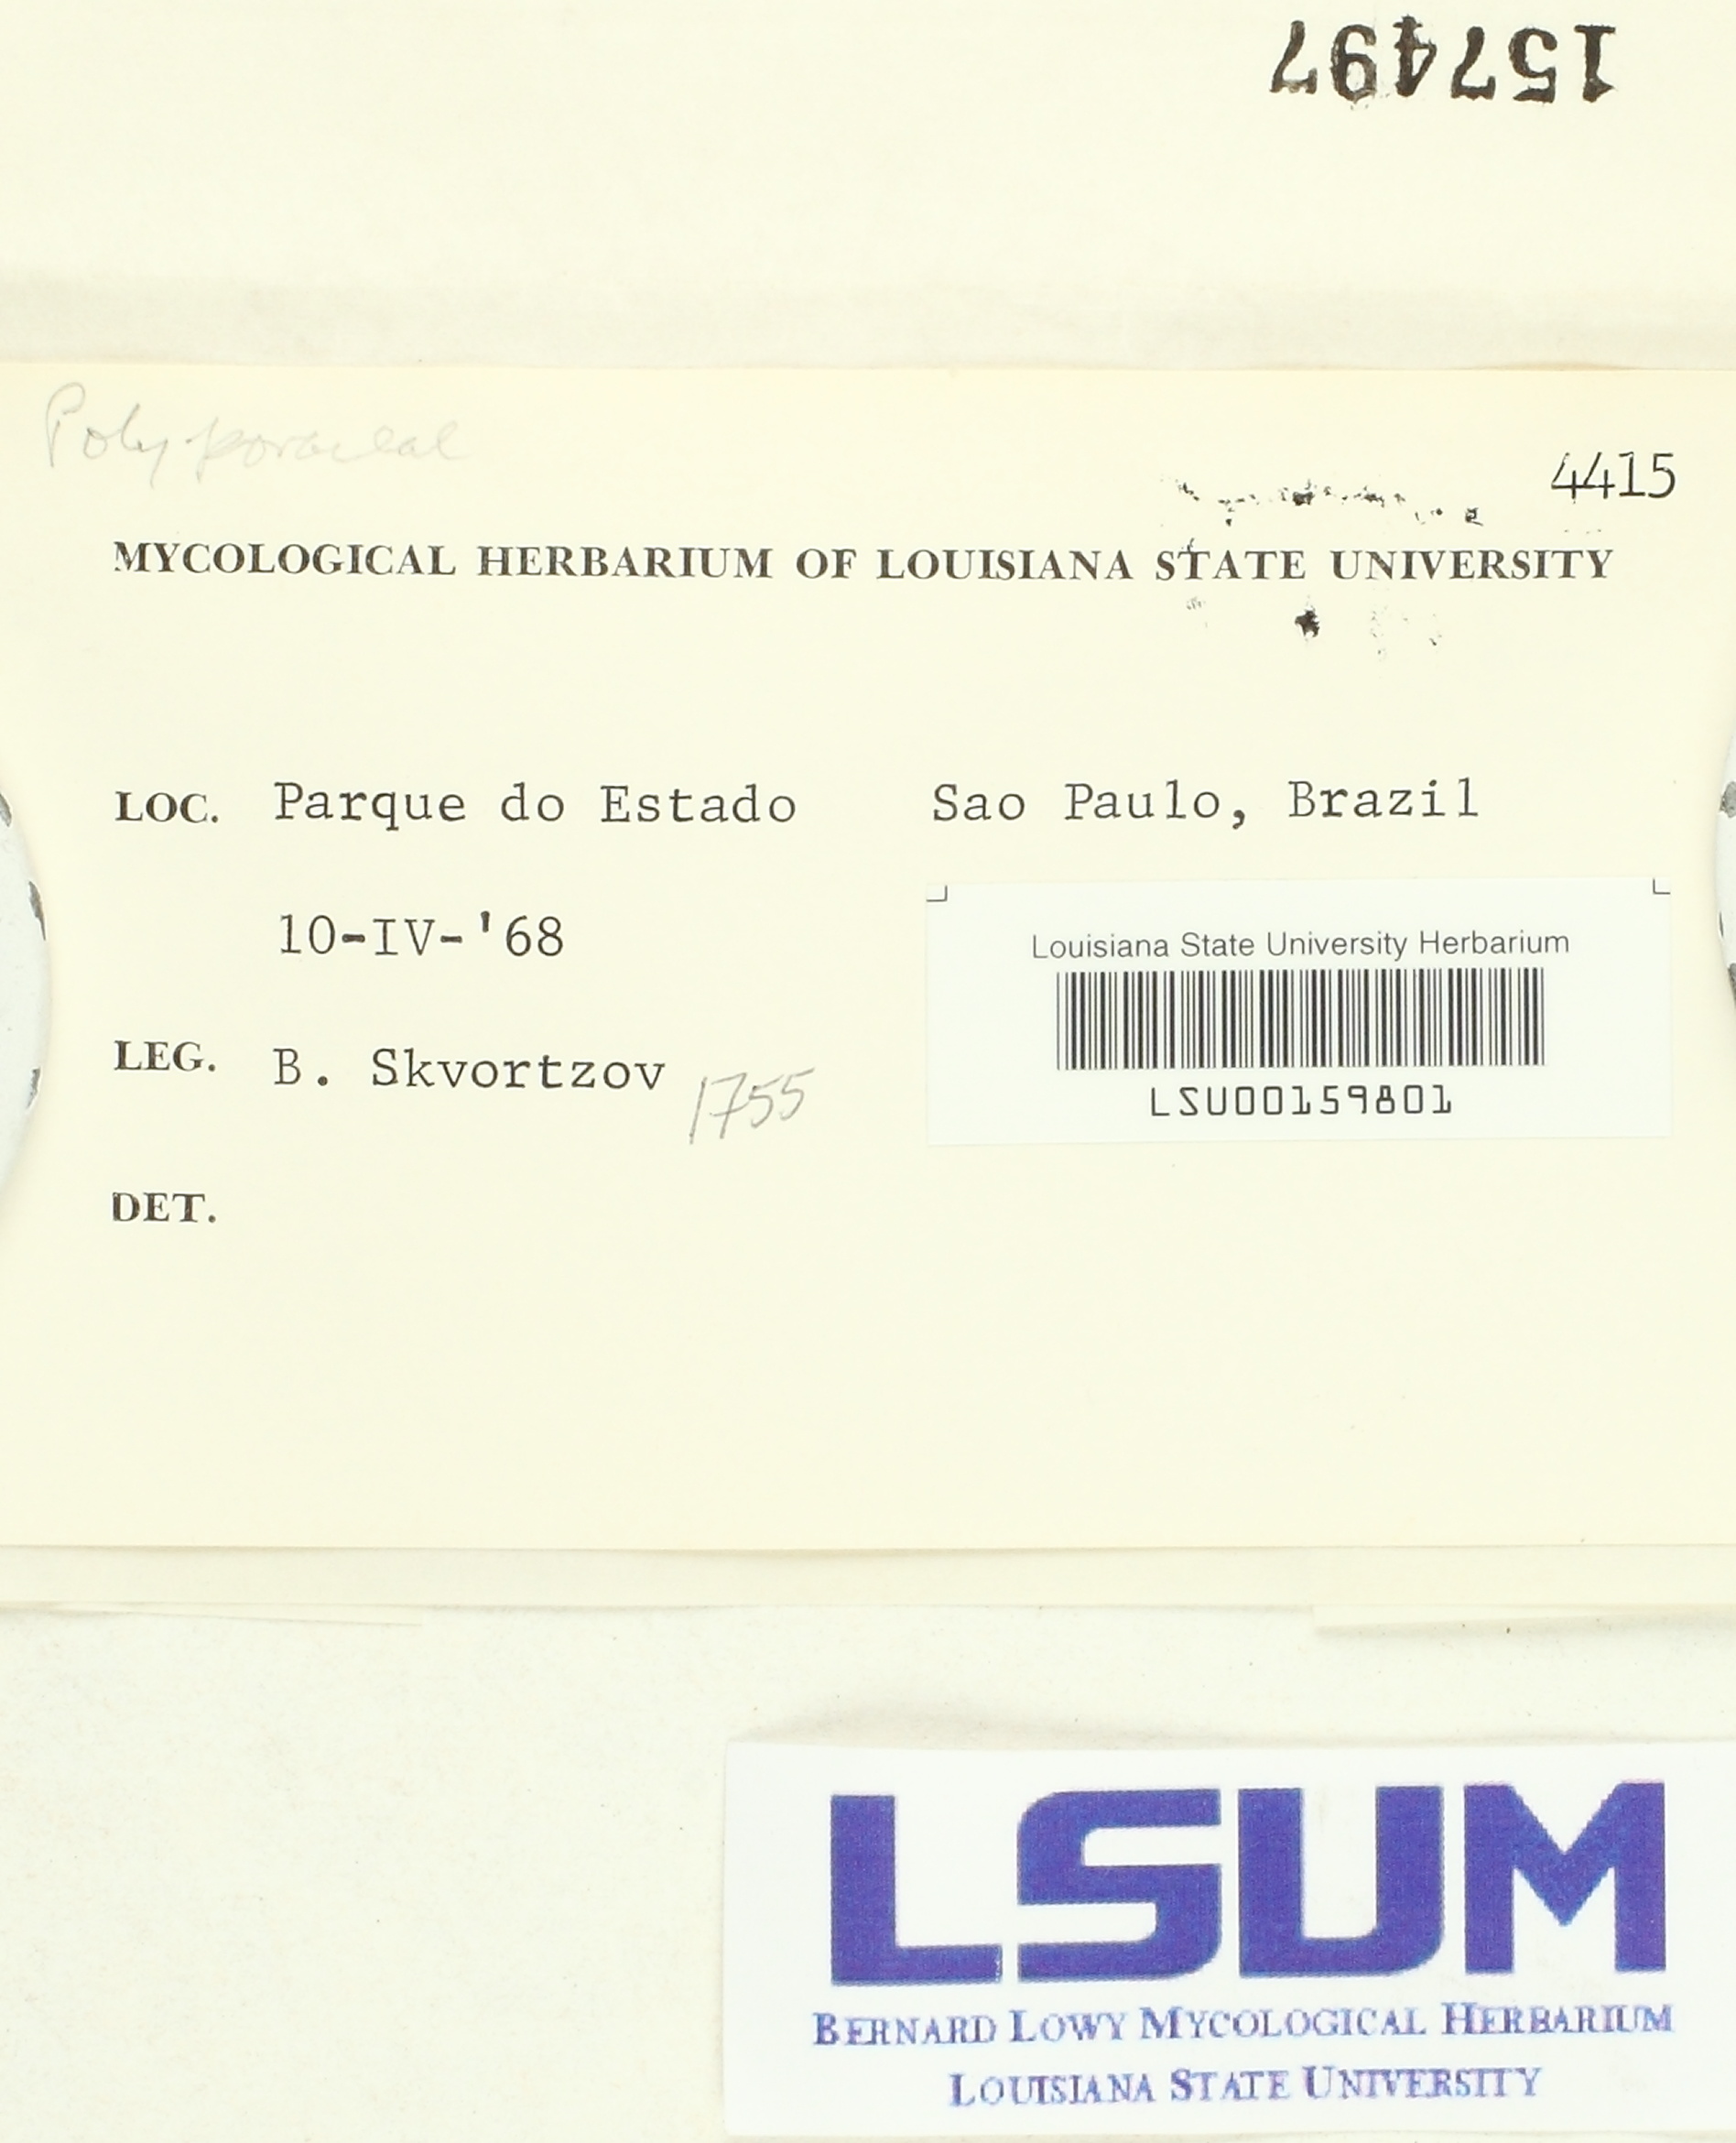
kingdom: Fungi
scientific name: Fungi
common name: Fungi
